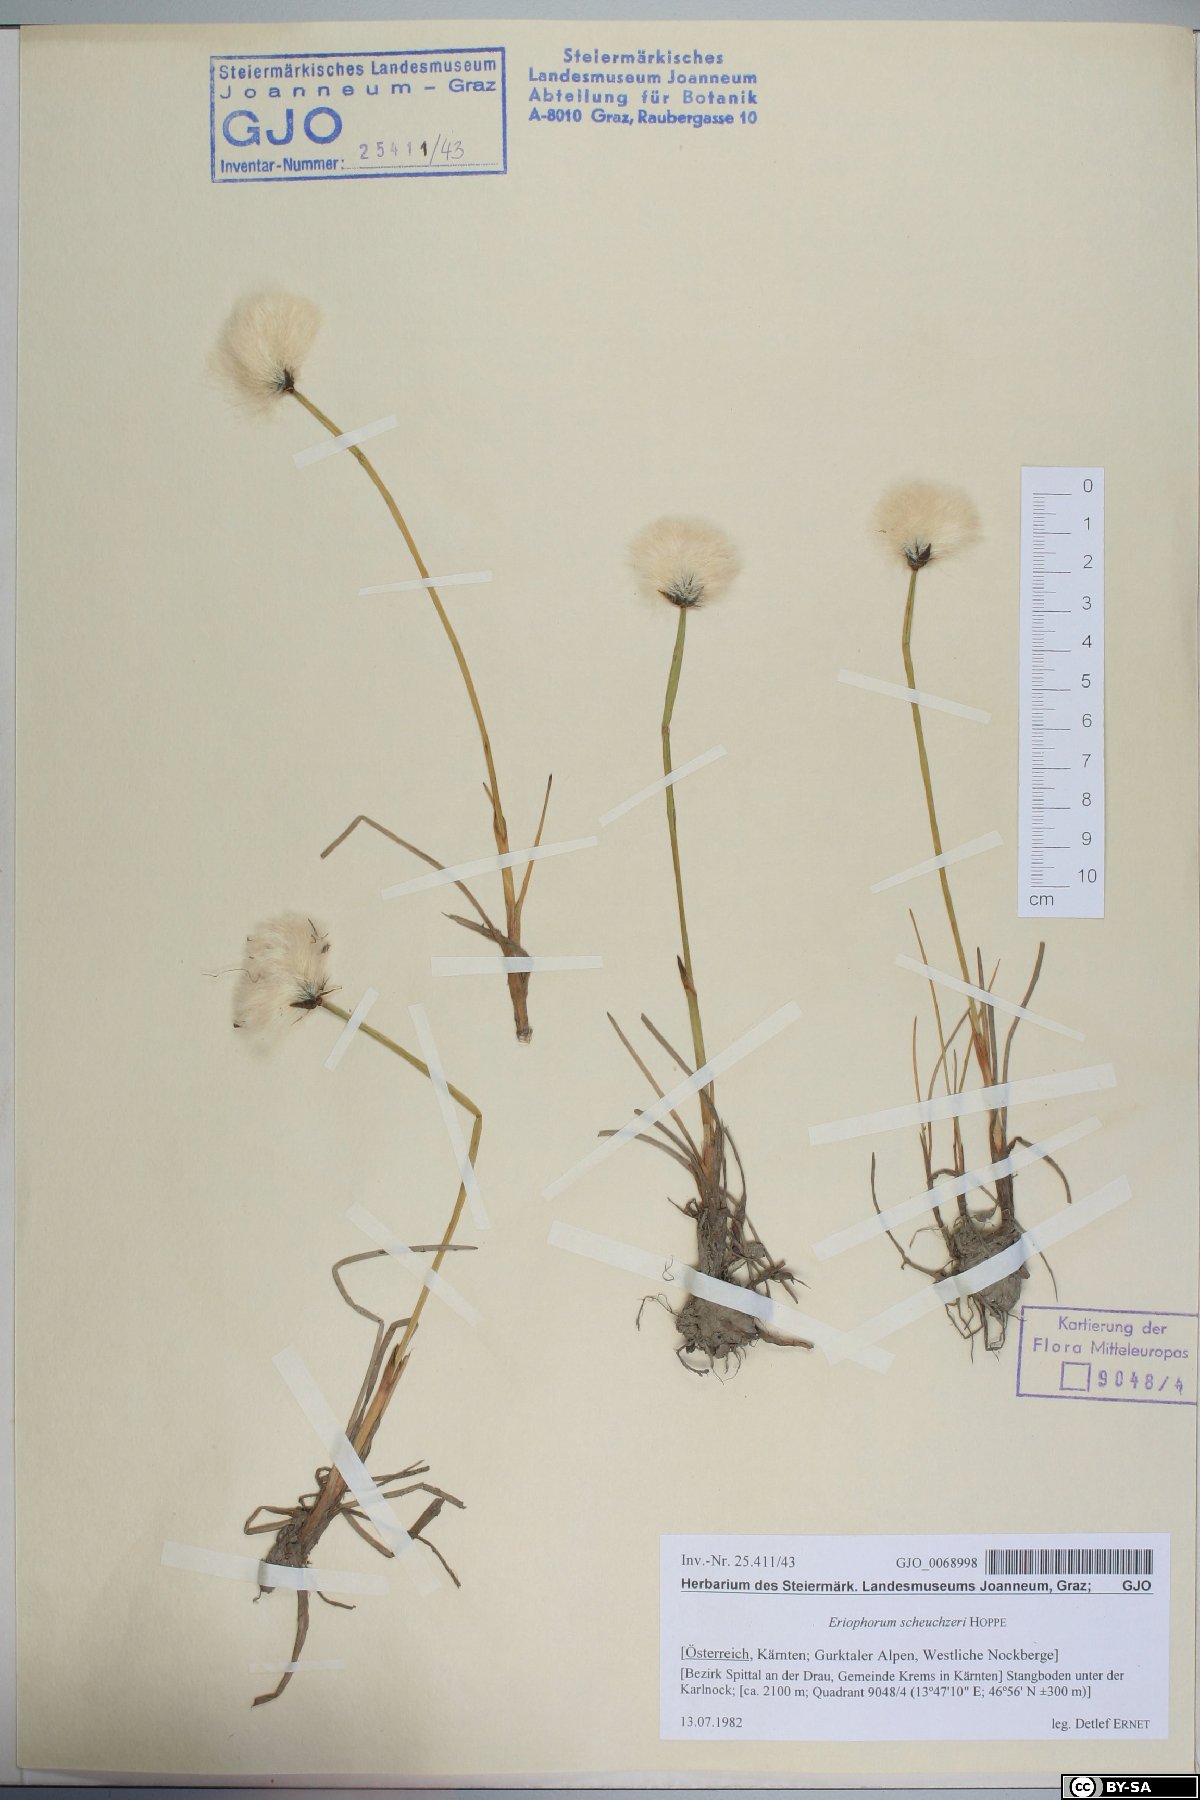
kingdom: Plantae
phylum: Tracheophyta
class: Liliopsida
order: Poales
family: Cyperaceae
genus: Eriophorum
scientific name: Eriophorum scheuchzeri
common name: Scheuchzer's cottongrass
